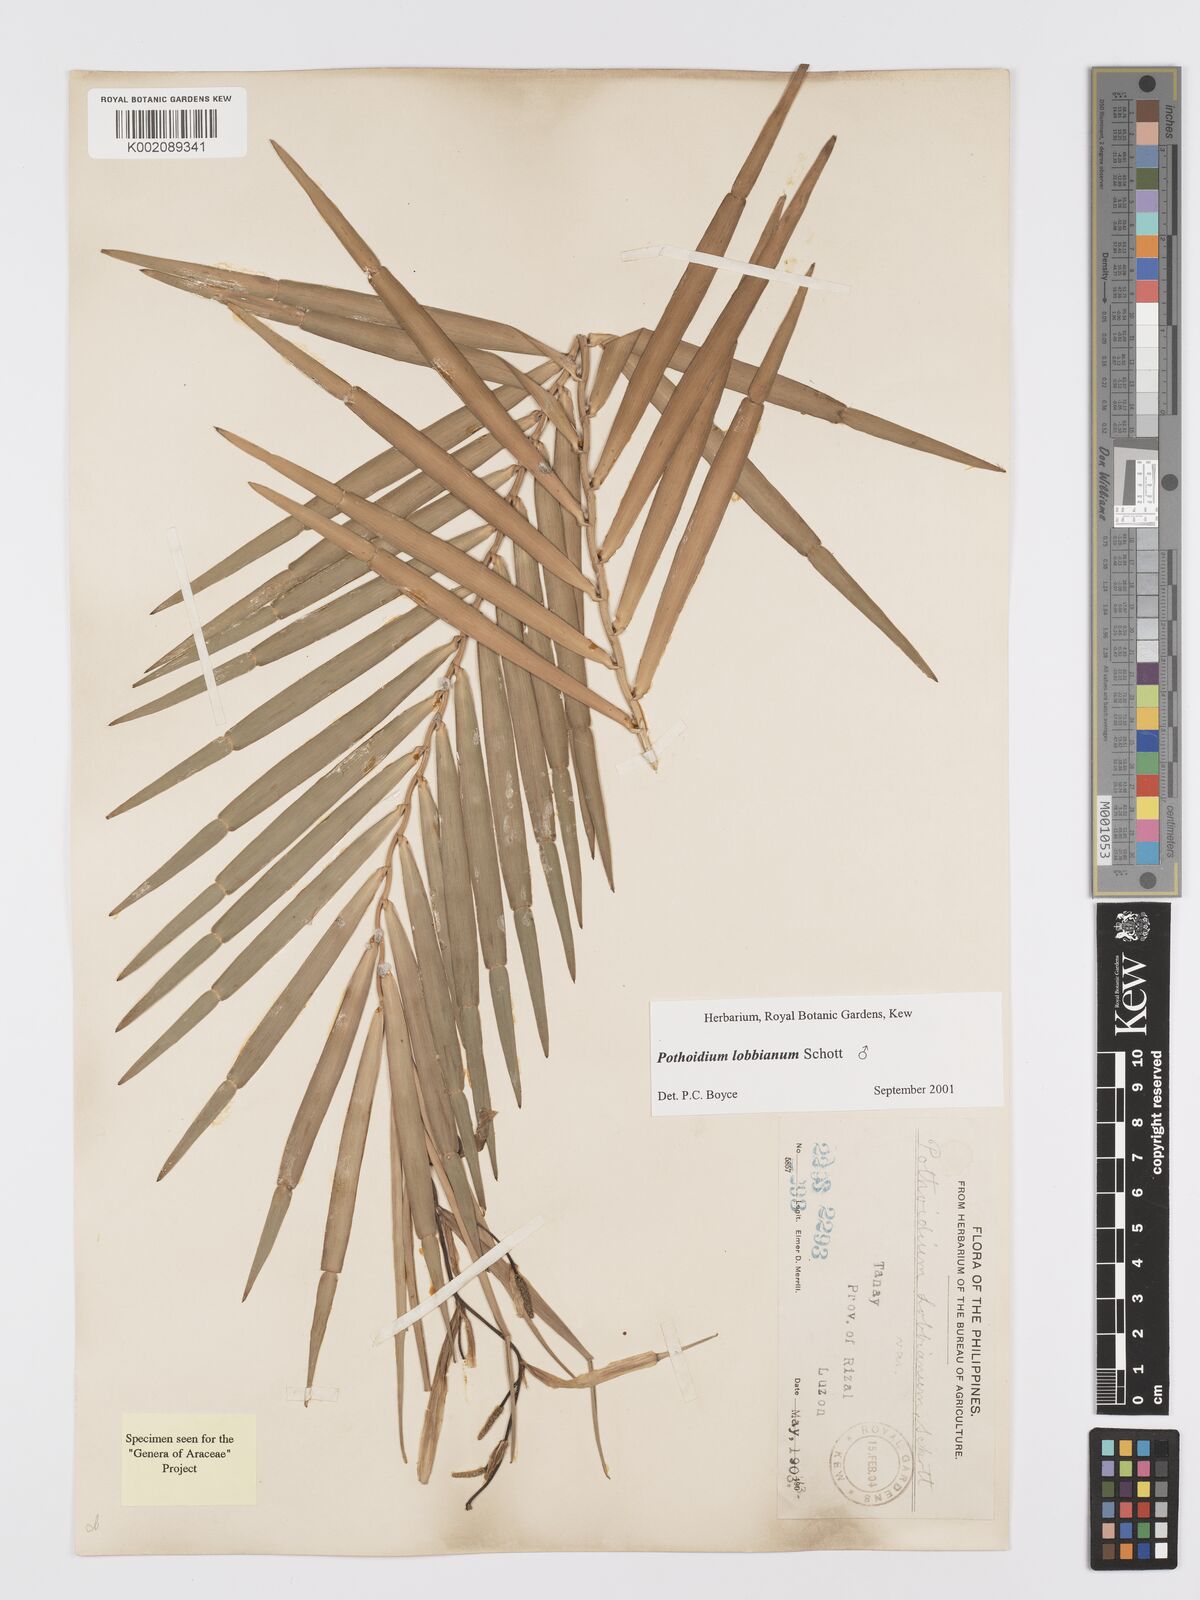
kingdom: Plantae
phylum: Tracheophyta
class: Liliopsida
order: Alismatales
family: Araceae
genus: Pothoidium
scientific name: Pothoidium lobbianum
